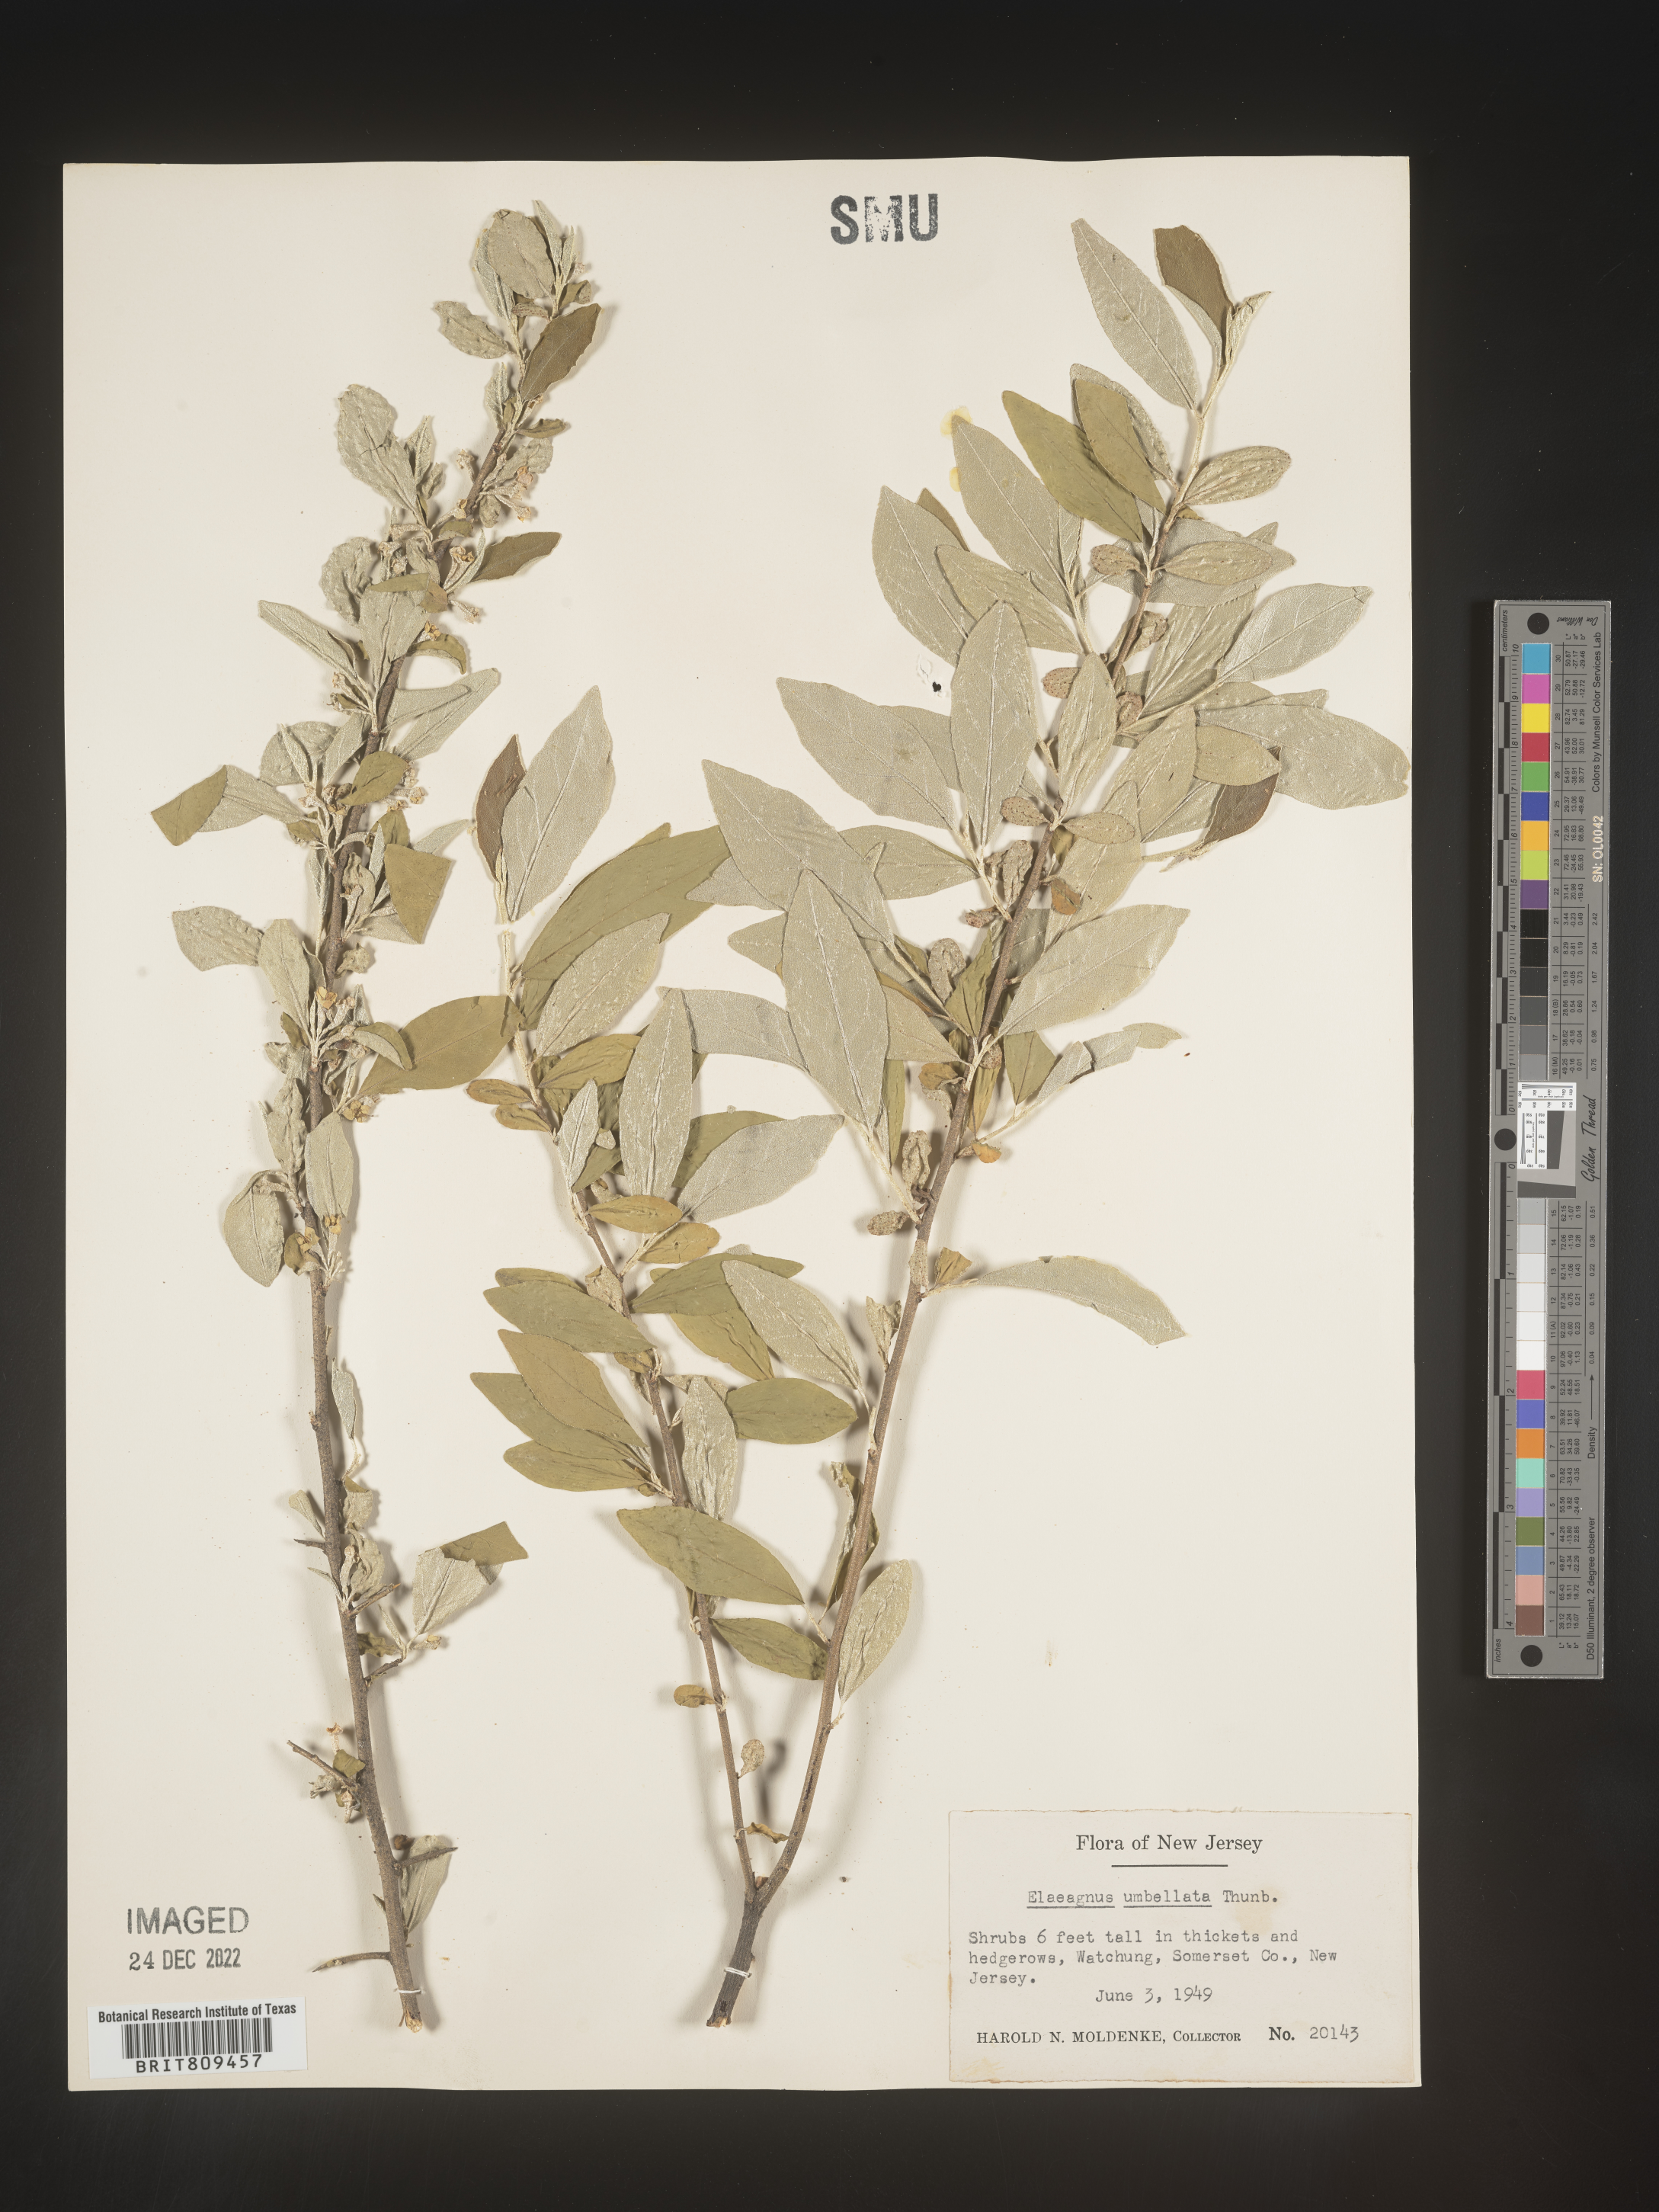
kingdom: Plantae
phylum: Tracheophyta
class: Magnoliopsida
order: Rosales
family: Elaeagnaceae
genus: Elaeagnus
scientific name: Elaeagnus
